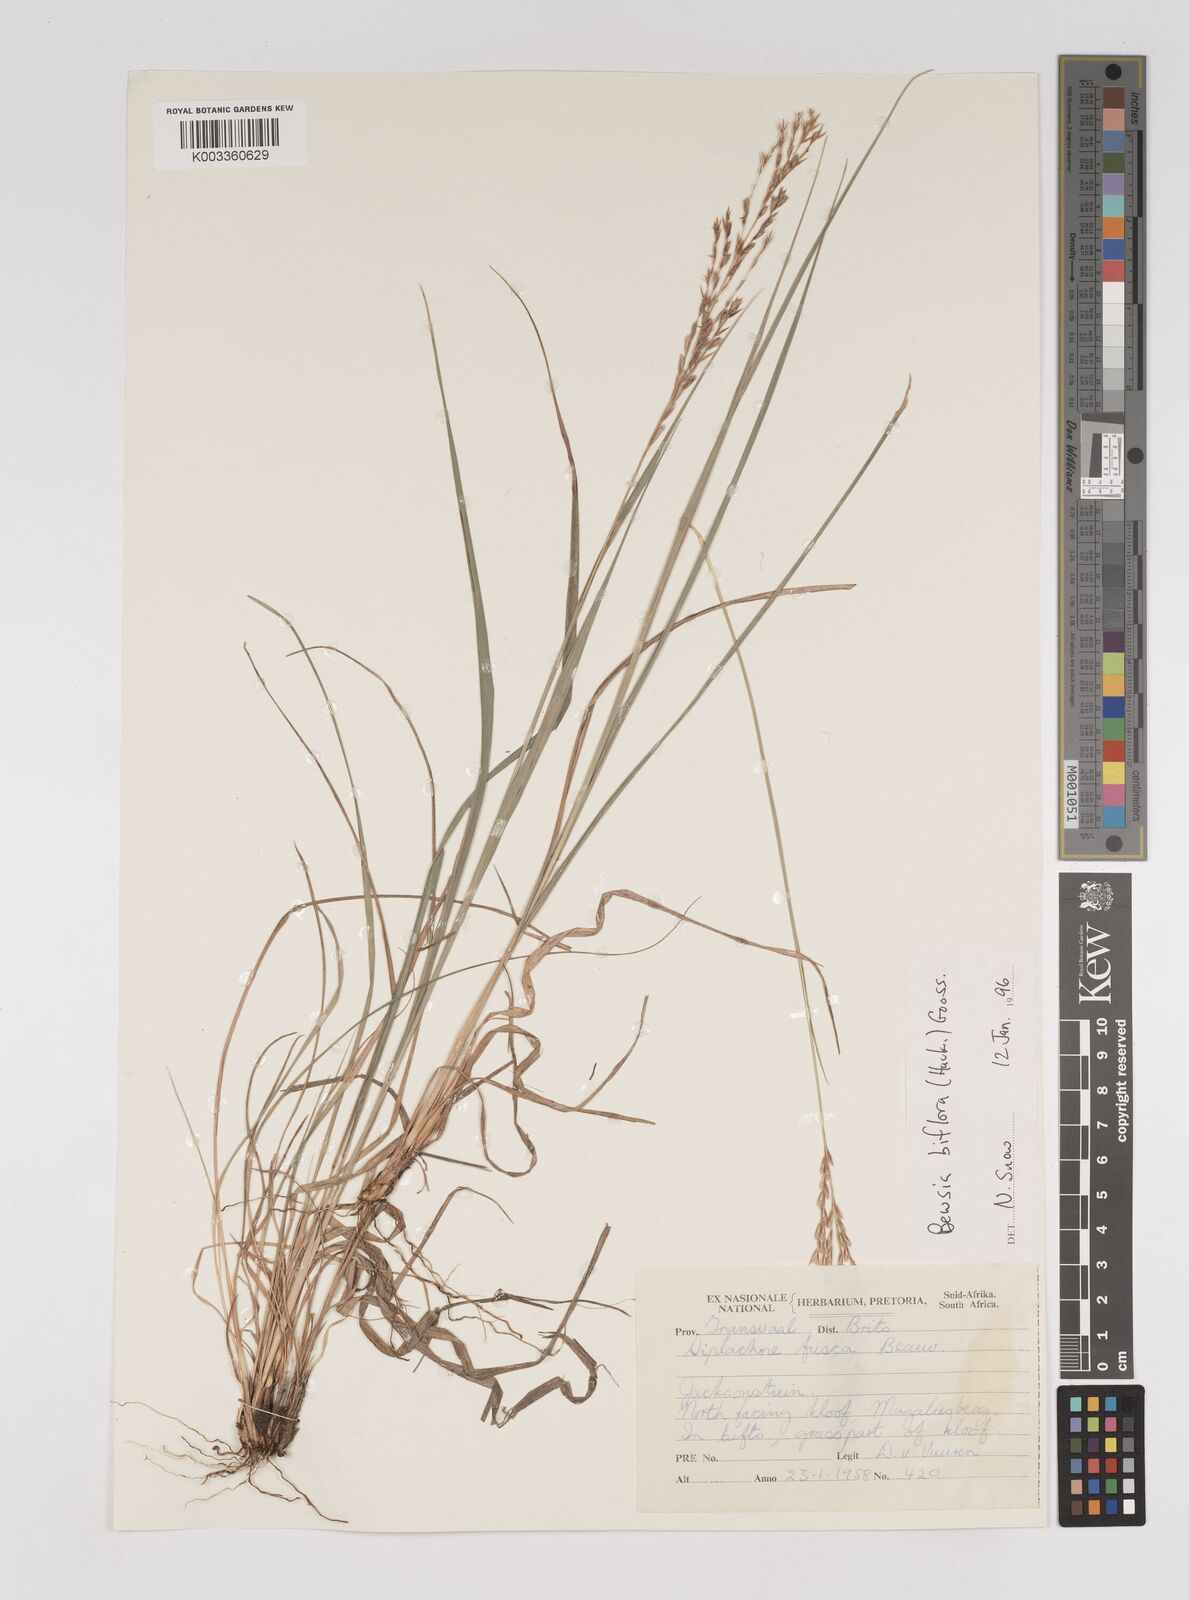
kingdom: Plantae
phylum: Tracheophyta
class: Liliopsida
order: Poales
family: Poaceae
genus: Bewsia
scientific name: Bewsia biflora
